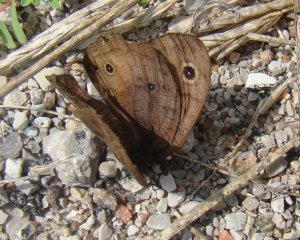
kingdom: Animalia
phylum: Arthropoda
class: Insecta
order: Lepidoptera
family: Nymphalidae
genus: Cercyonis
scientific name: Cercyonis pegala
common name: Common Wood-Nymph
